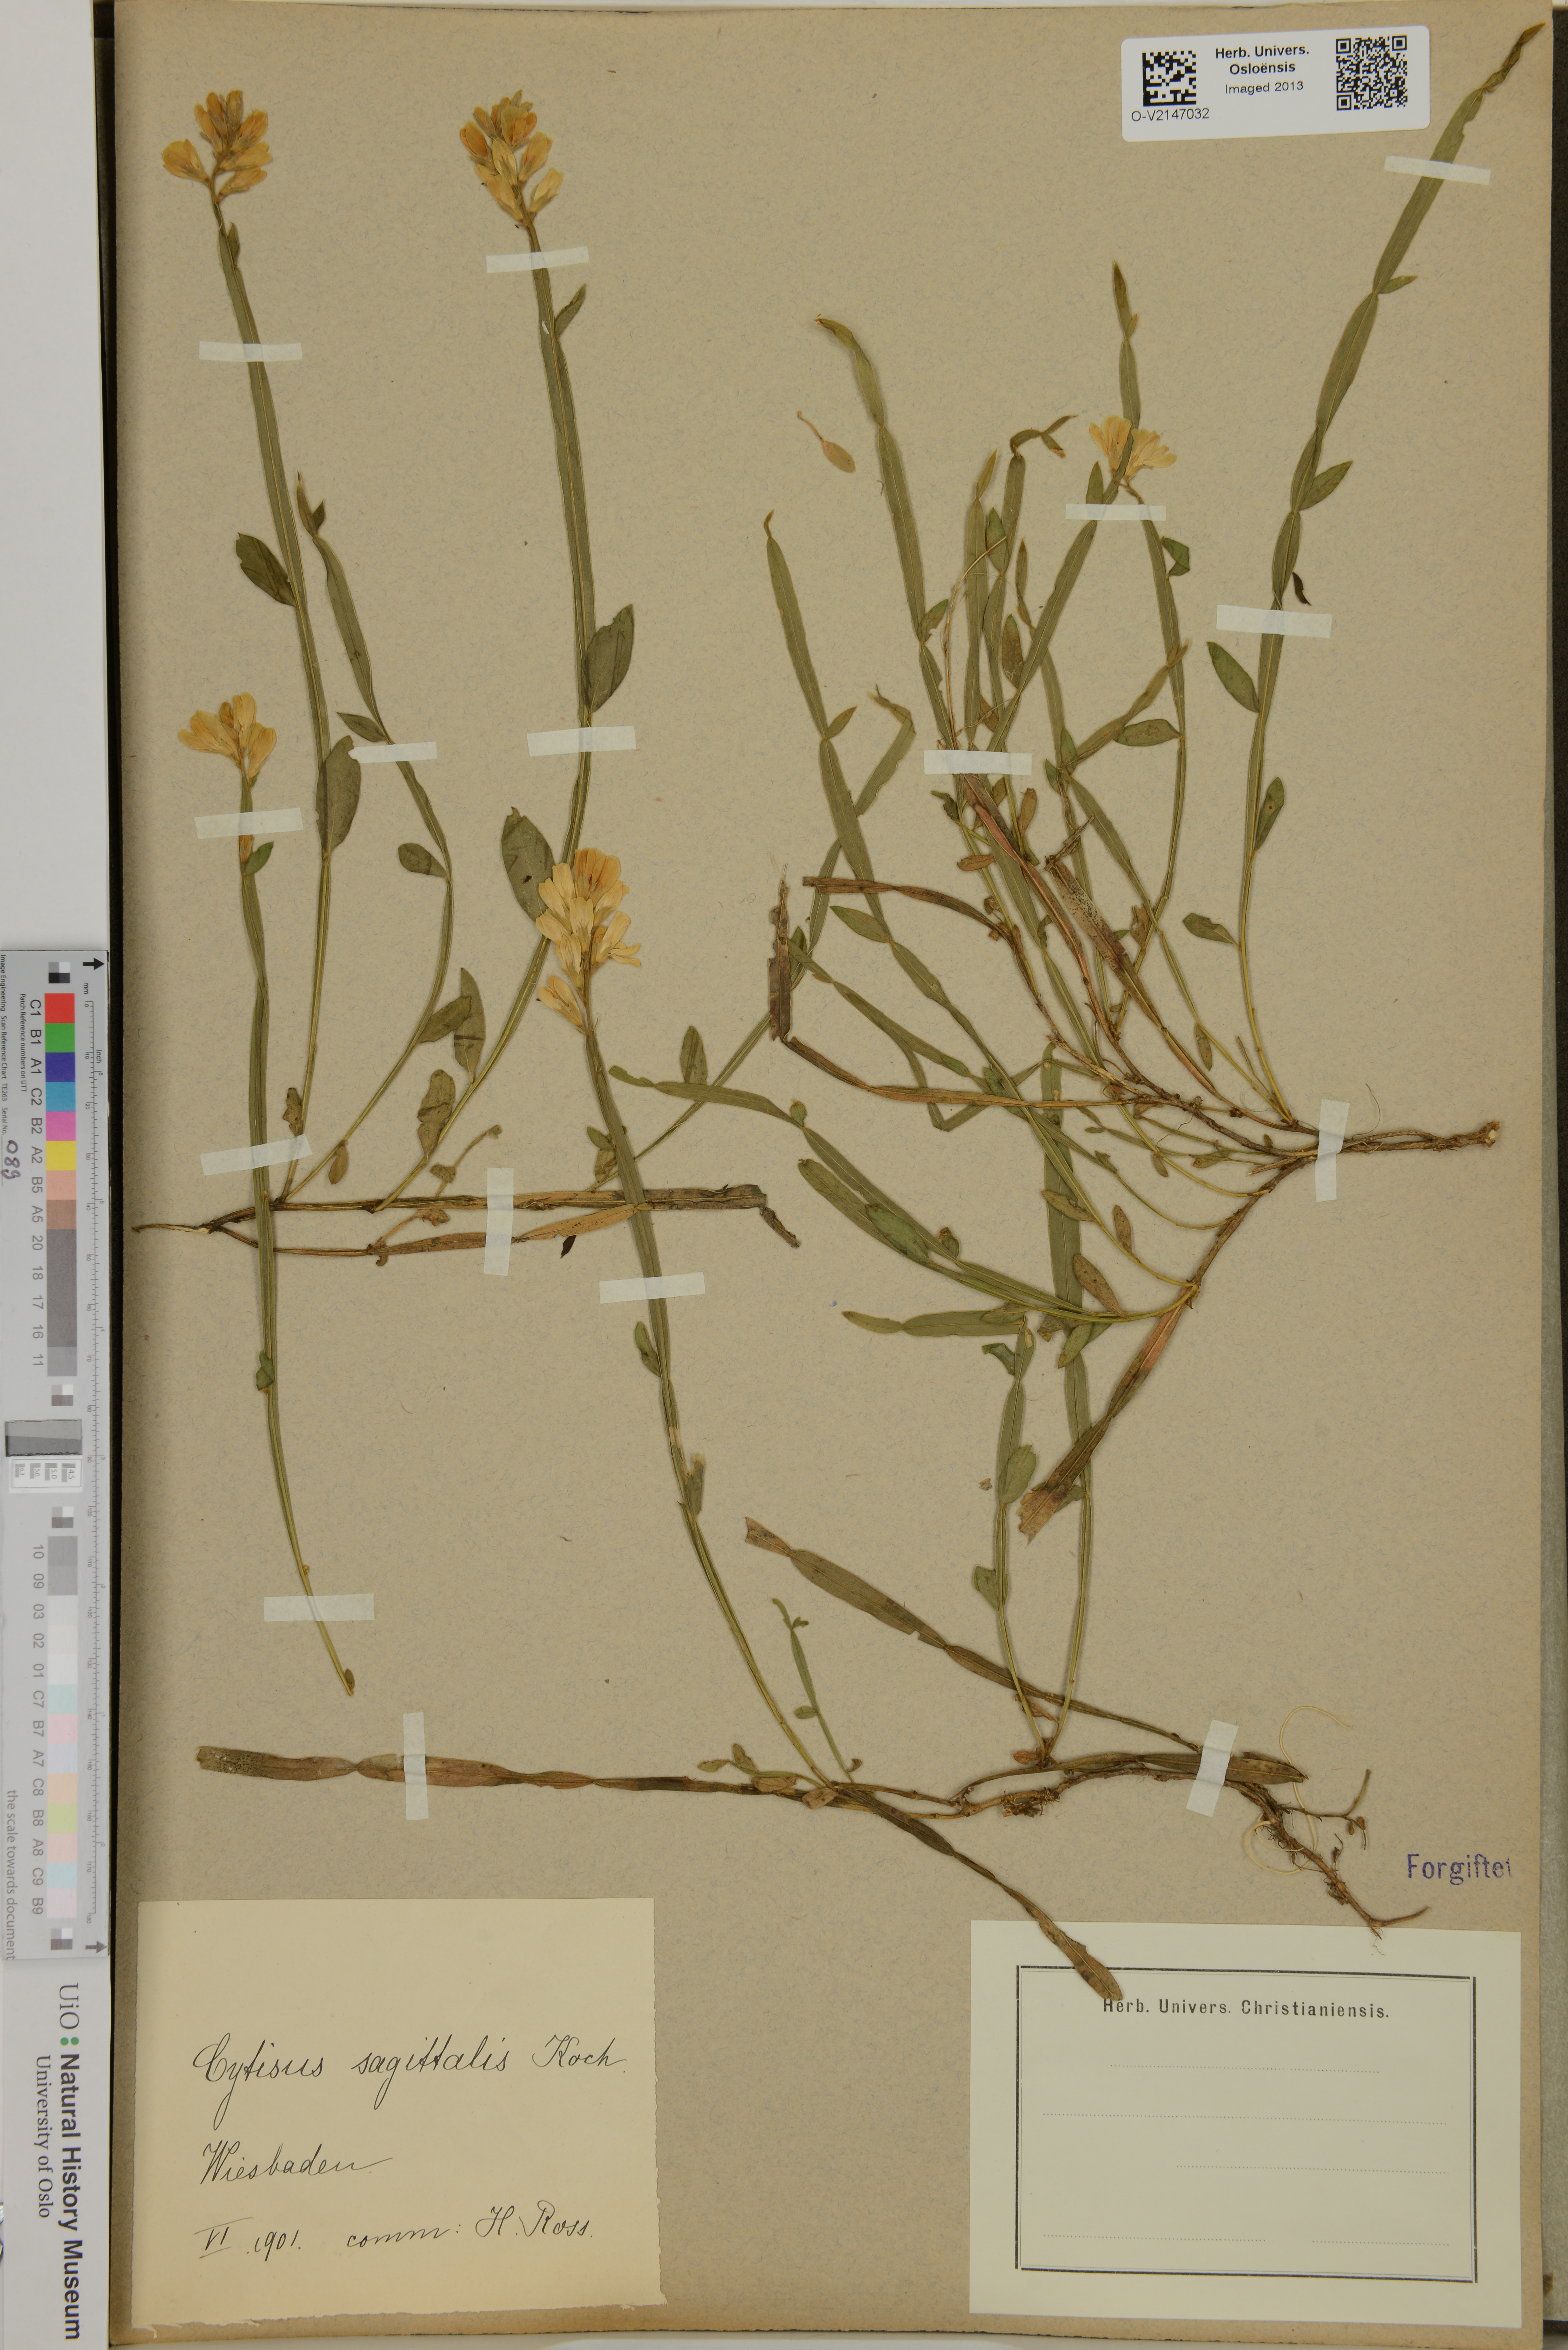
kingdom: Plantae
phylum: Tracheophyta
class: Magnoliopsida
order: Fabales
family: Fabaceae
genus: Genista
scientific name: Genista sagittalis
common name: Winged greenweed
